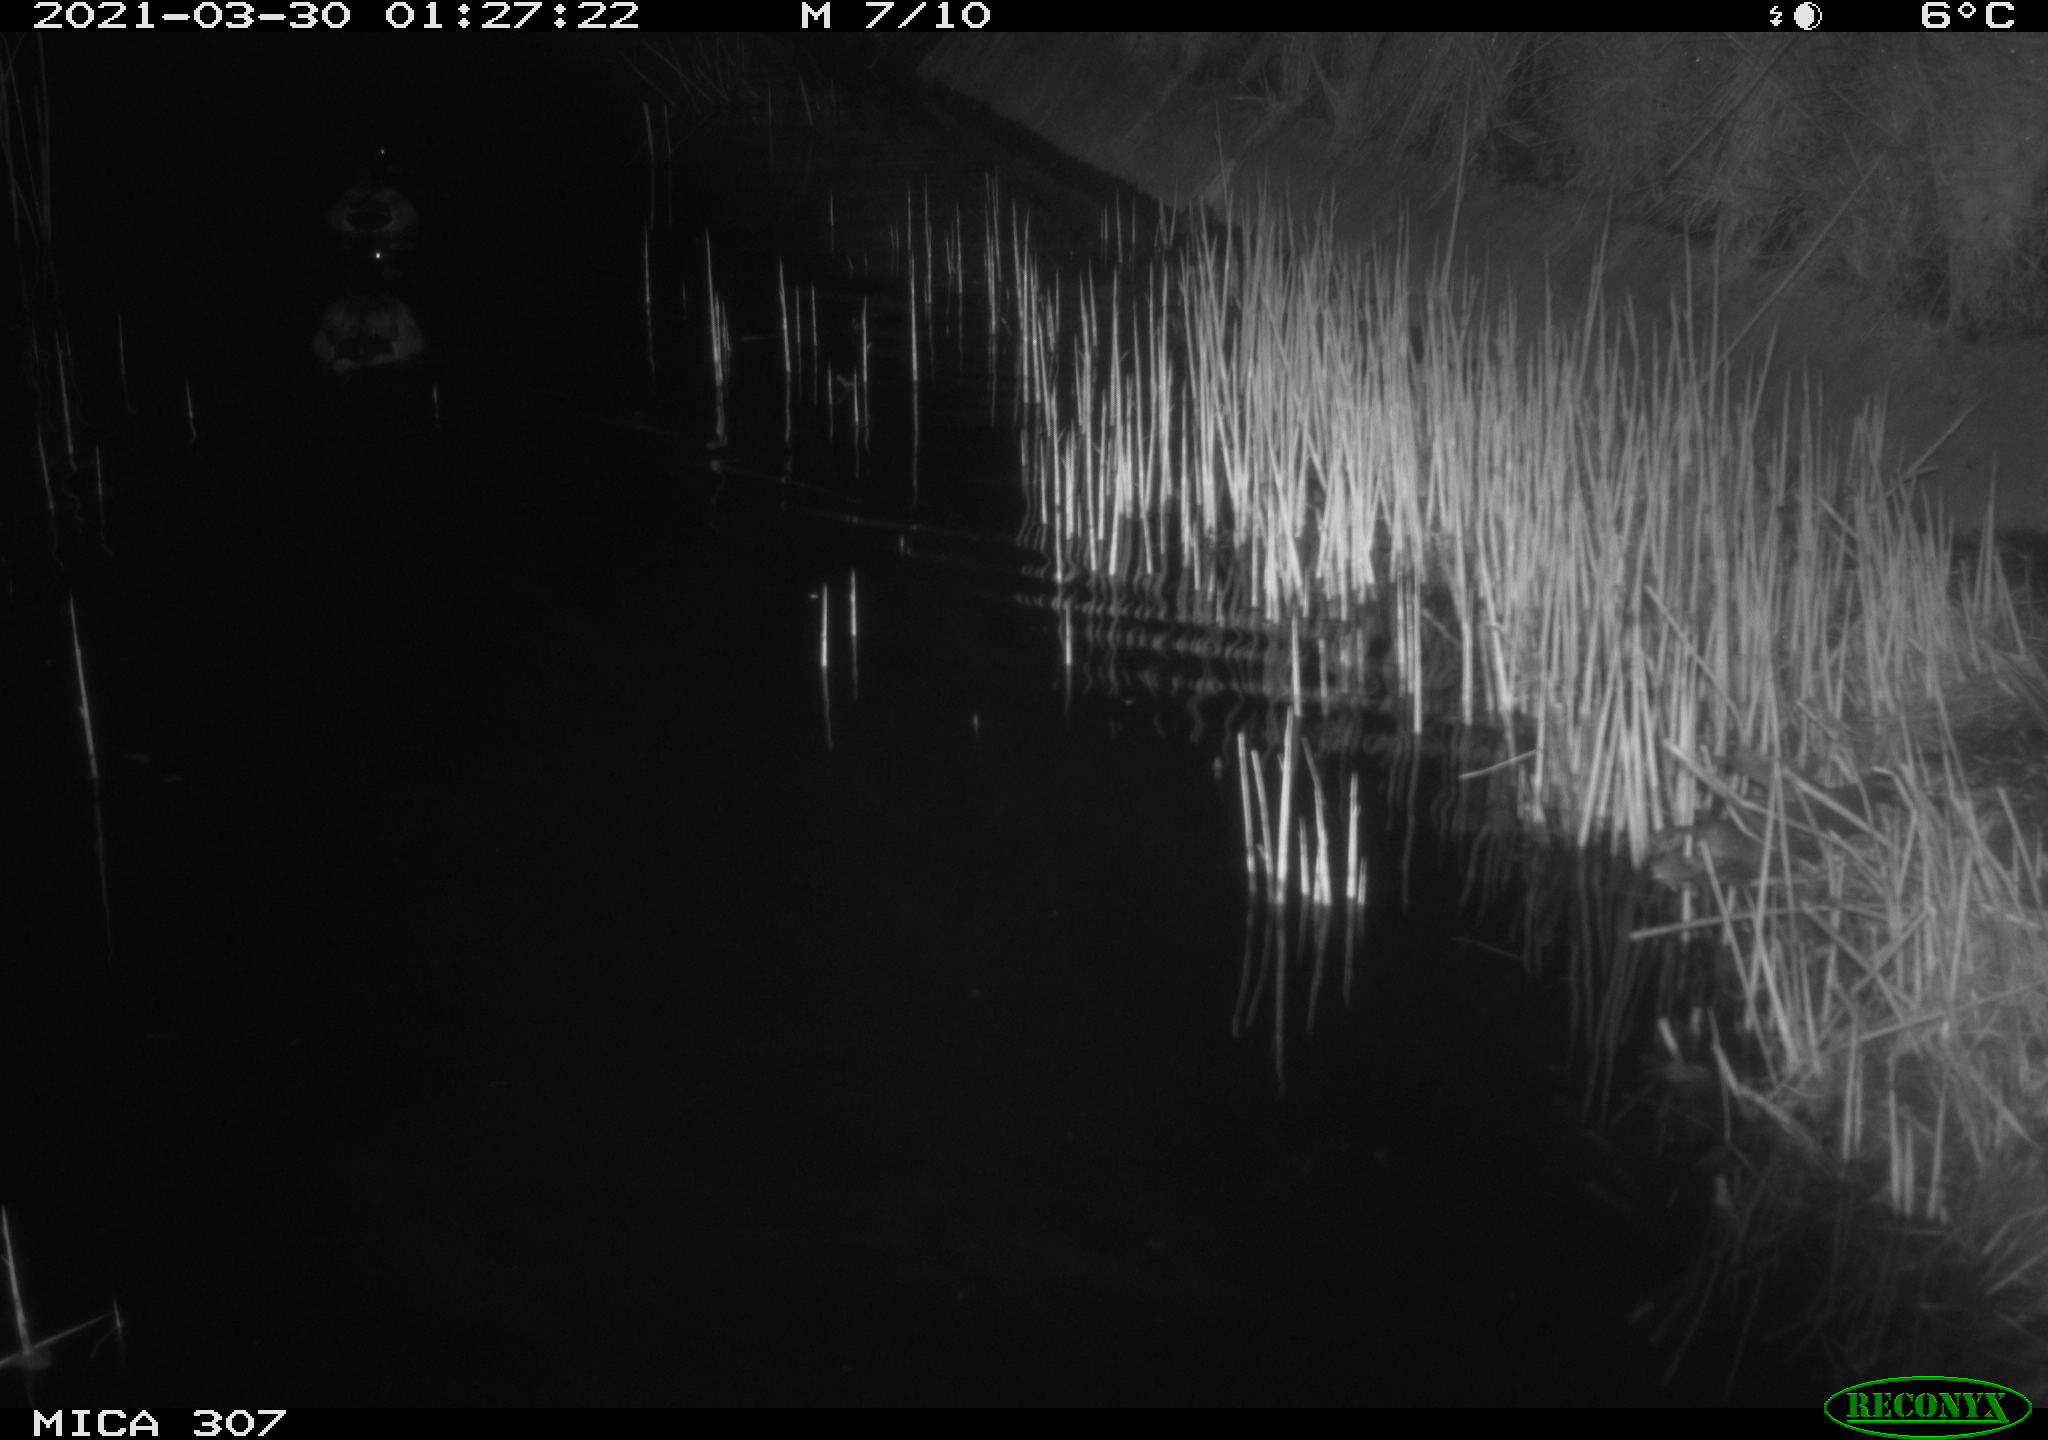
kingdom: Animalia
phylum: Chordata
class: Aves
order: Anseriformes
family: Anatidae
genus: Anas
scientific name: Anas platyrhynchos
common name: Mallard
